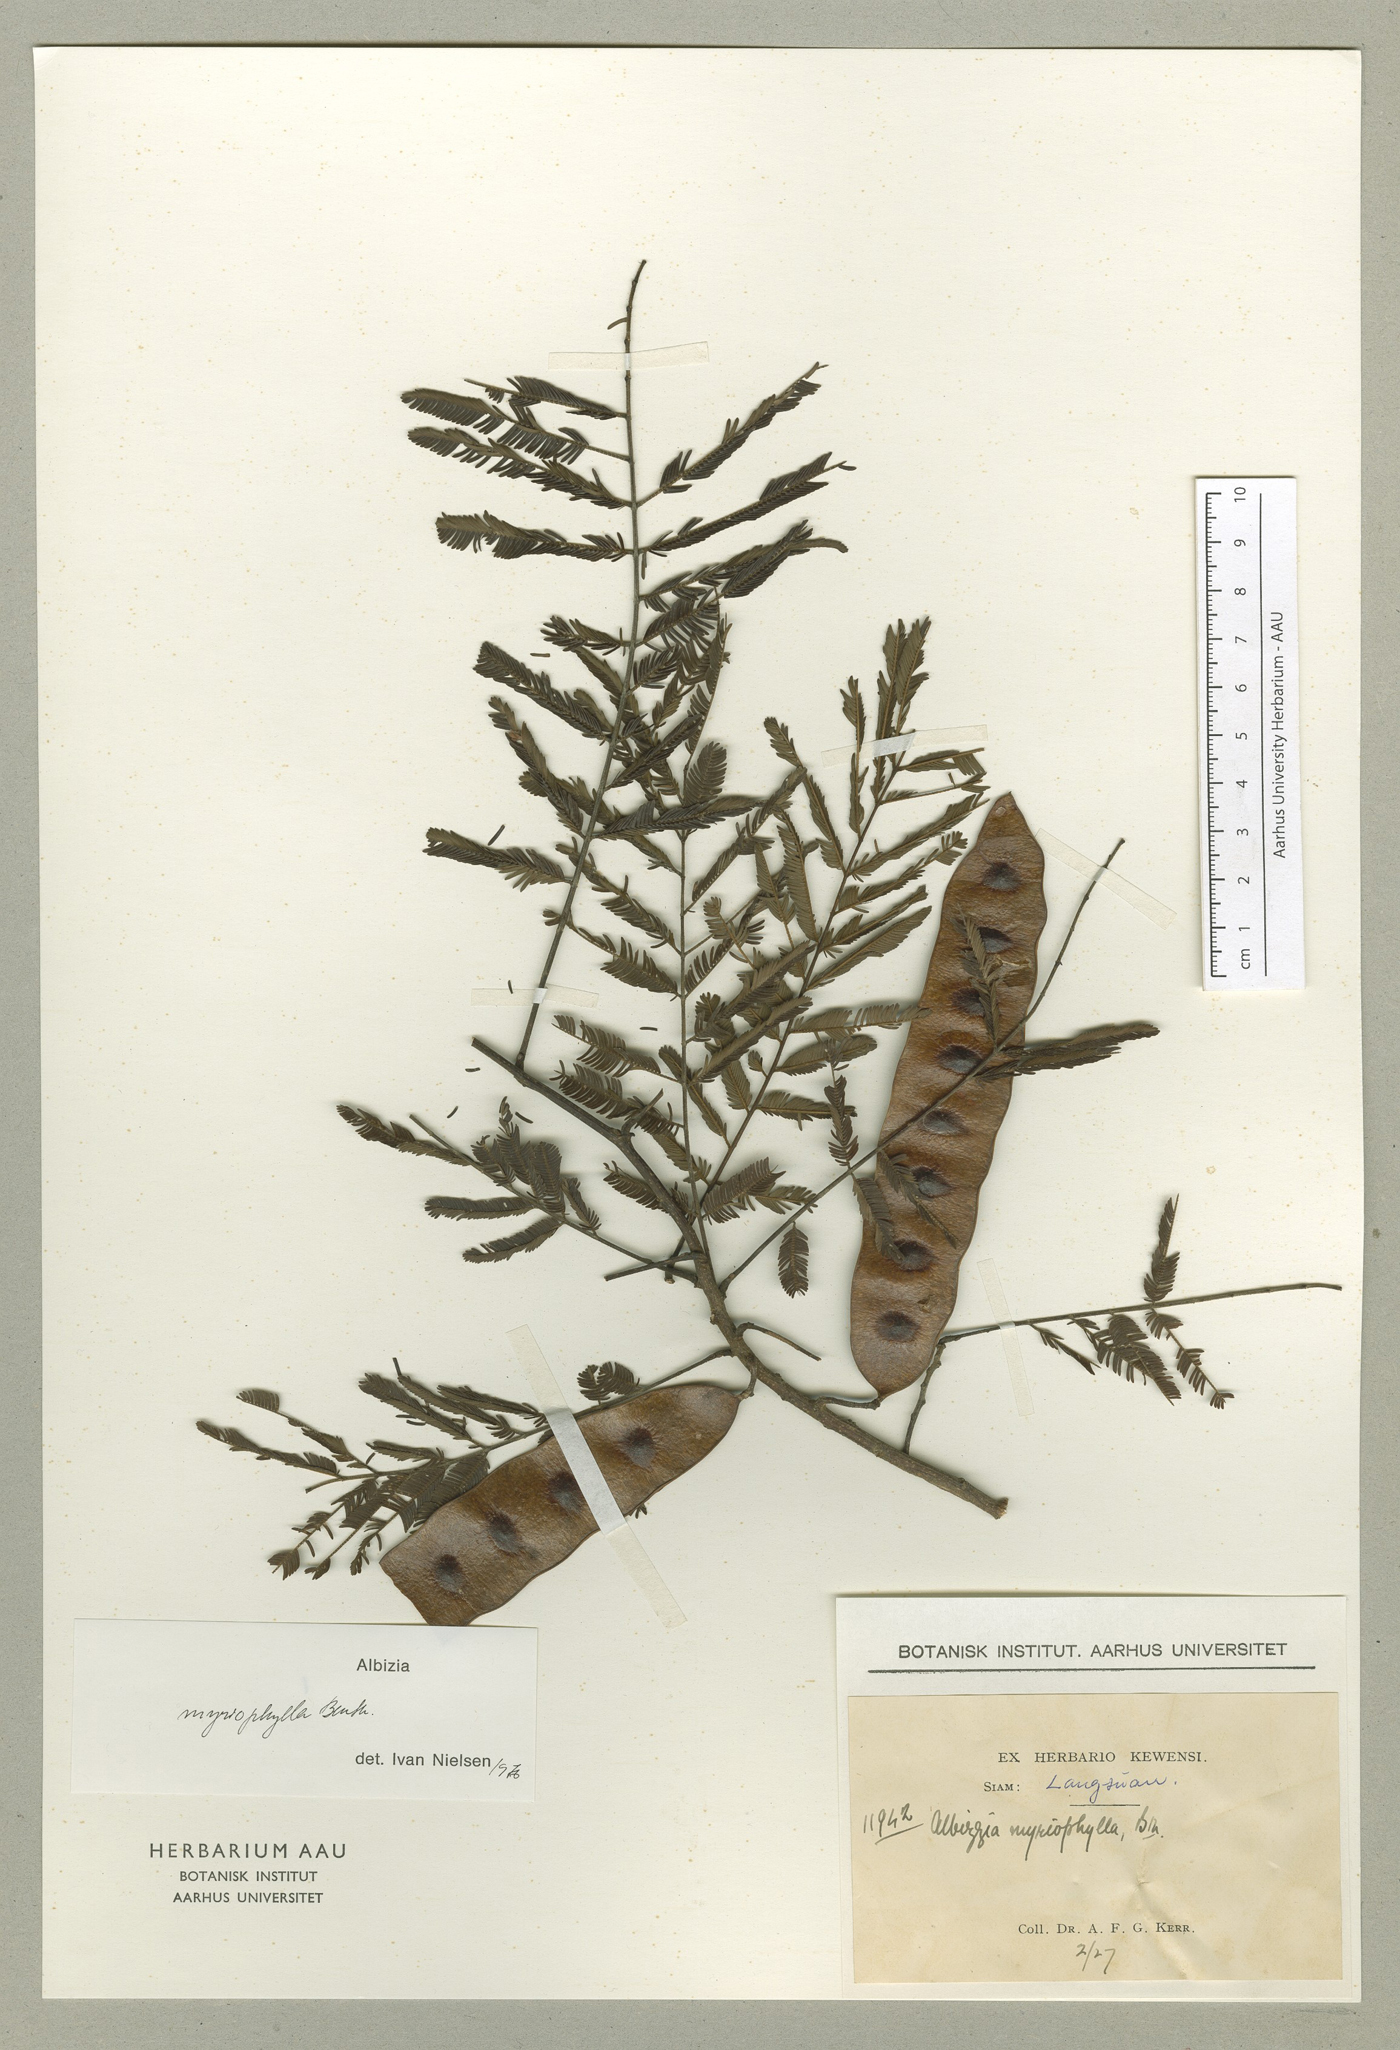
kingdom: Plantae
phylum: Tracheophyta
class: Magnoliopsida
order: Fabales
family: Fabaceae
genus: Albizia
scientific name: Albizia myriophylla
